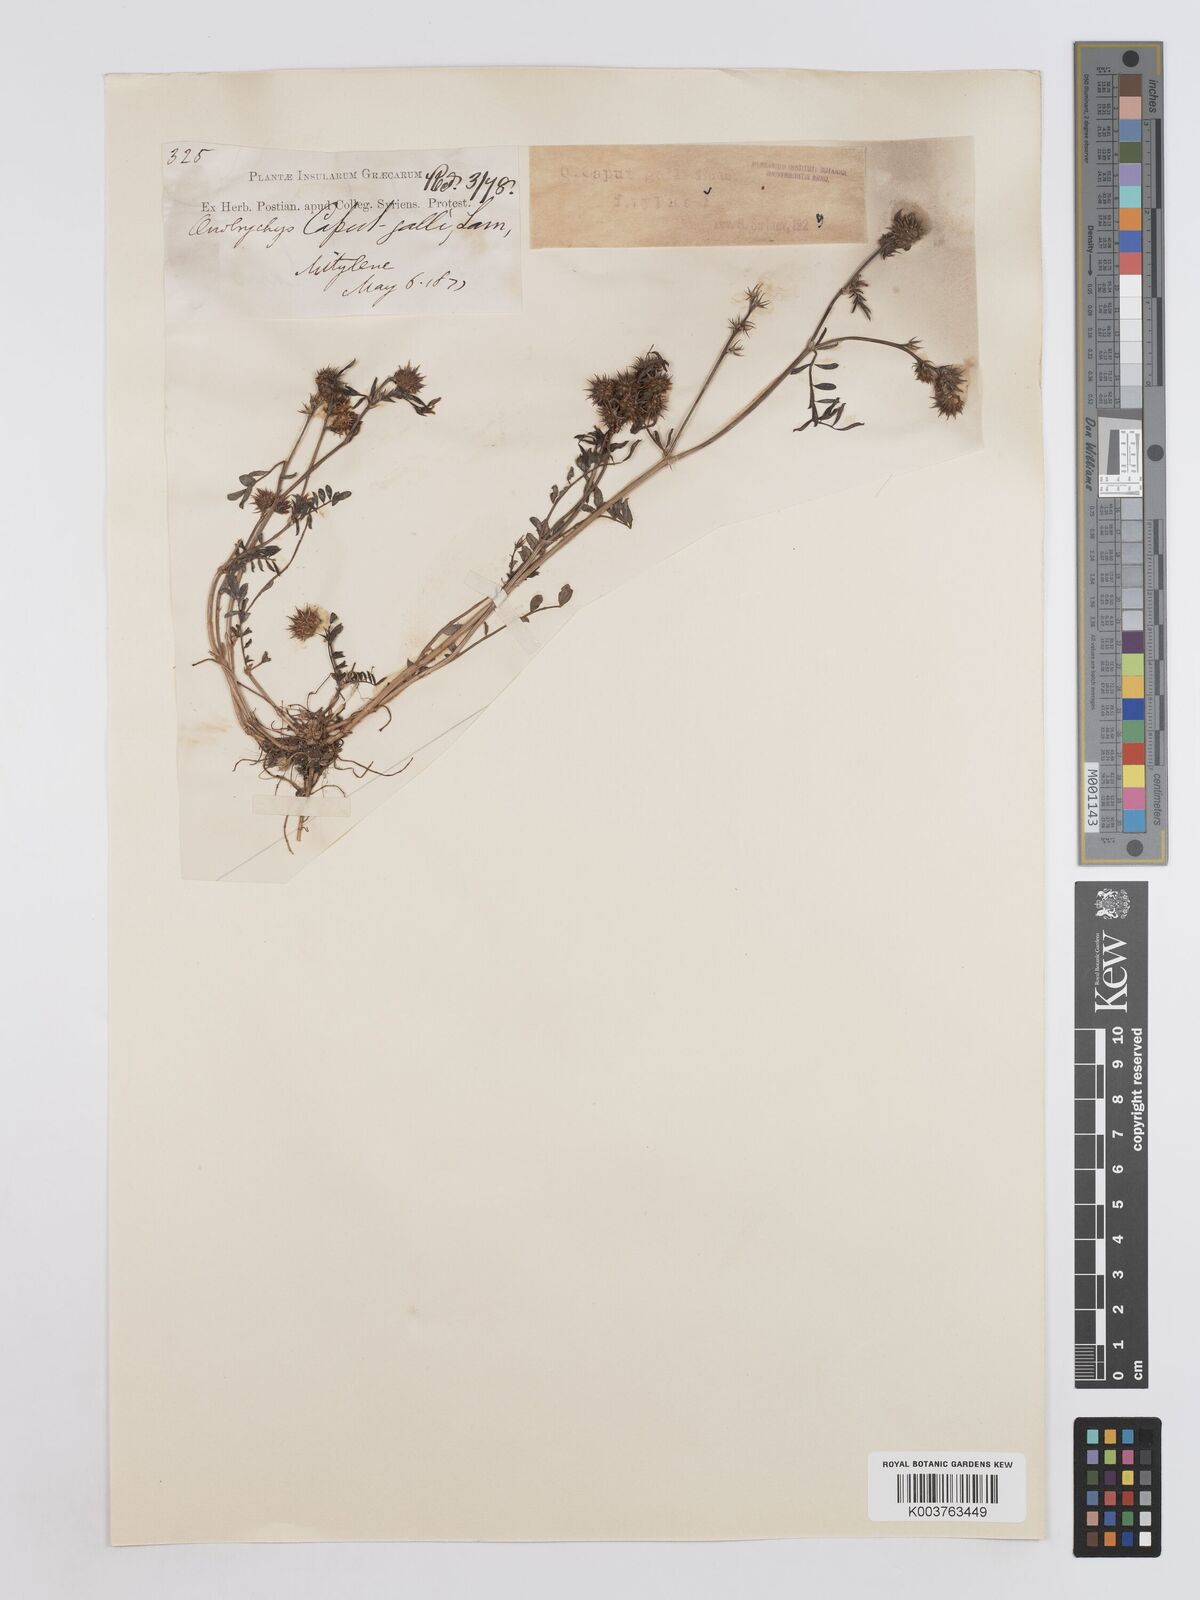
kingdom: Plantae
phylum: Tracheophyta
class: Magnoliopsida
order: Fabales
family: Fabaceae
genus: Onobrychis
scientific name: Onobrychis caput-galli
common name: Cockscomb sainfoin
